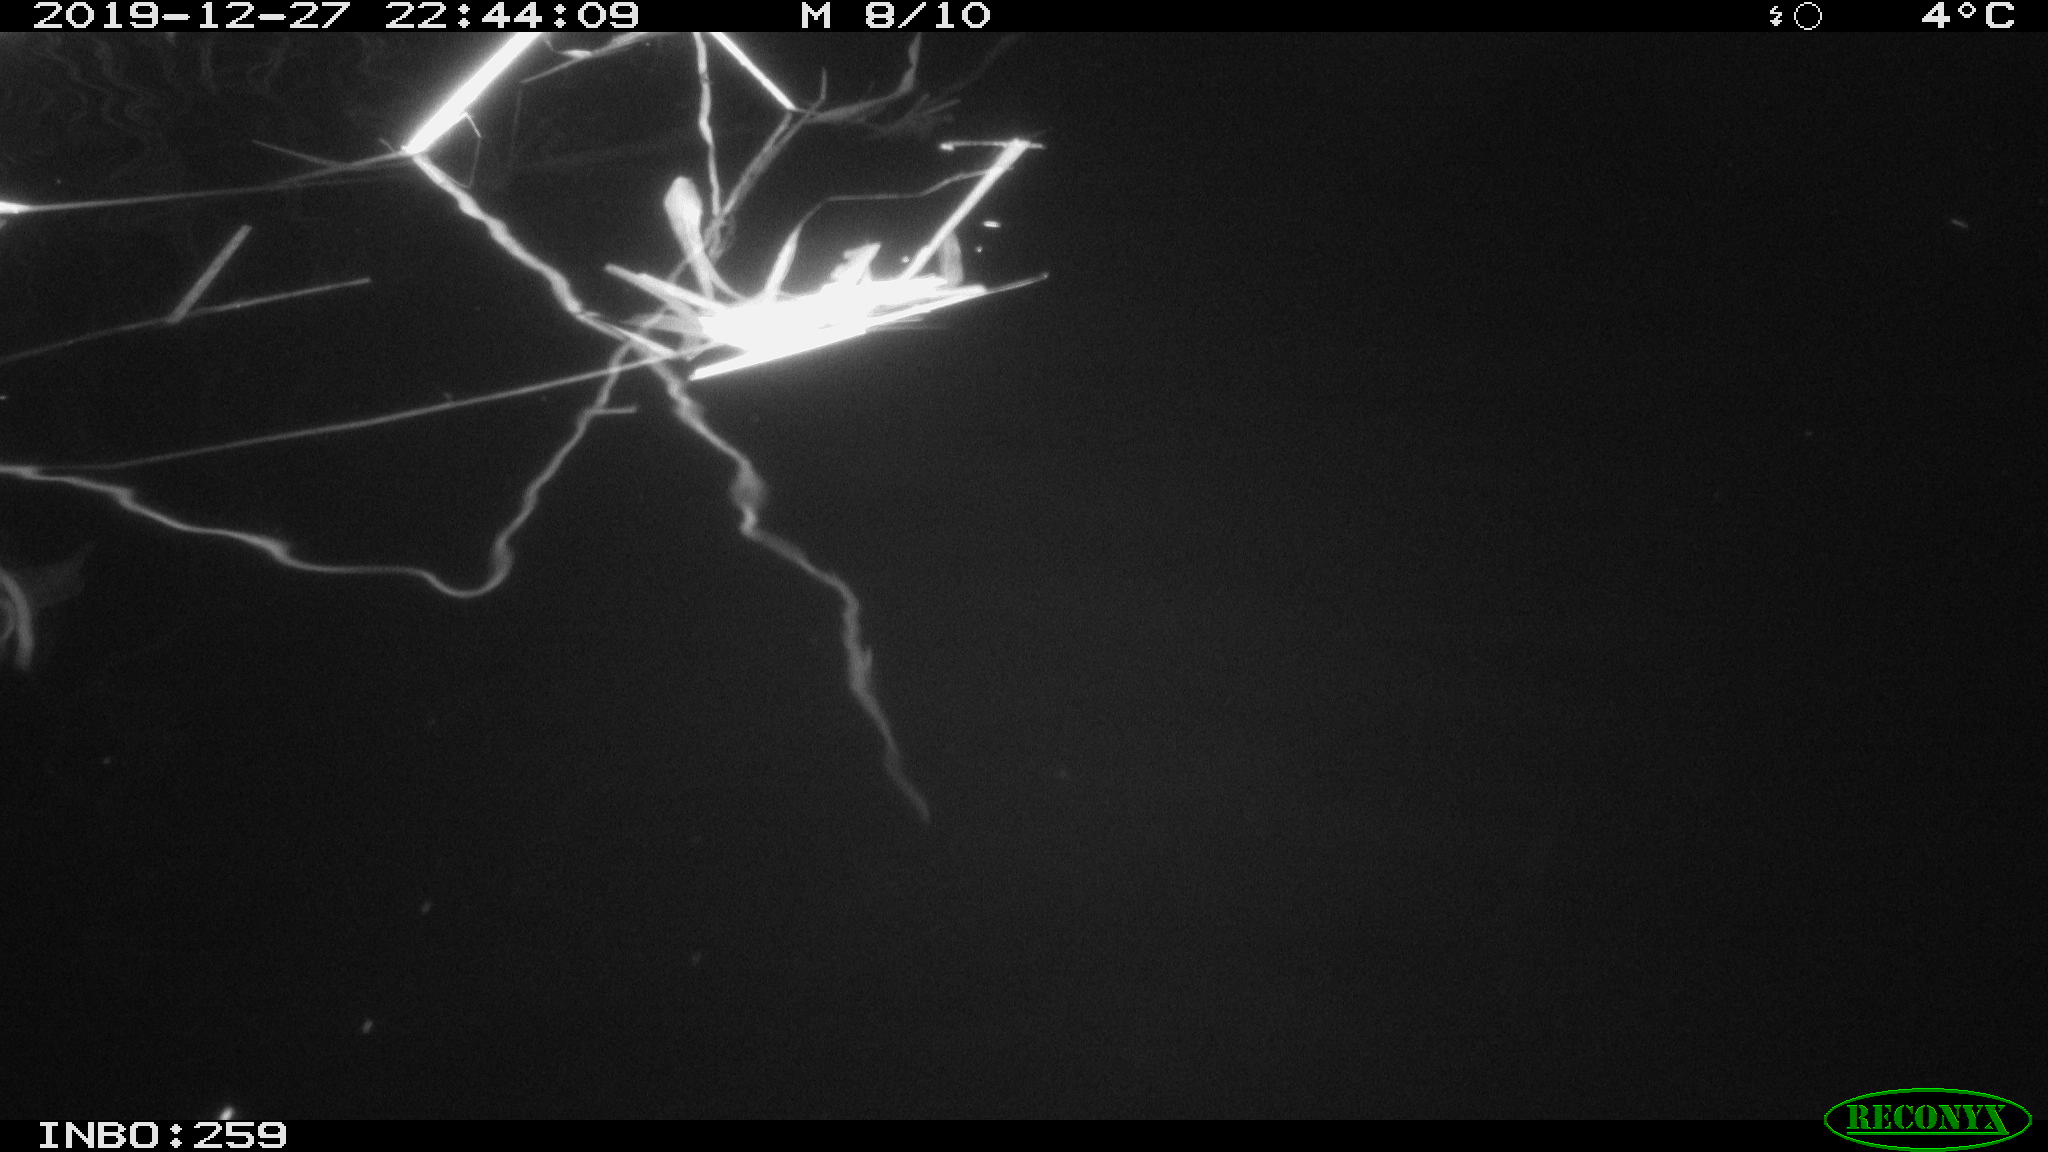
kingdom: Animalia
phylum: Chordata
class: Mammalia
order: Rodentia
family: Cricetidae
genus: Ondatra
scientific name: Ondatra zibethicus
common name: Muskrat
